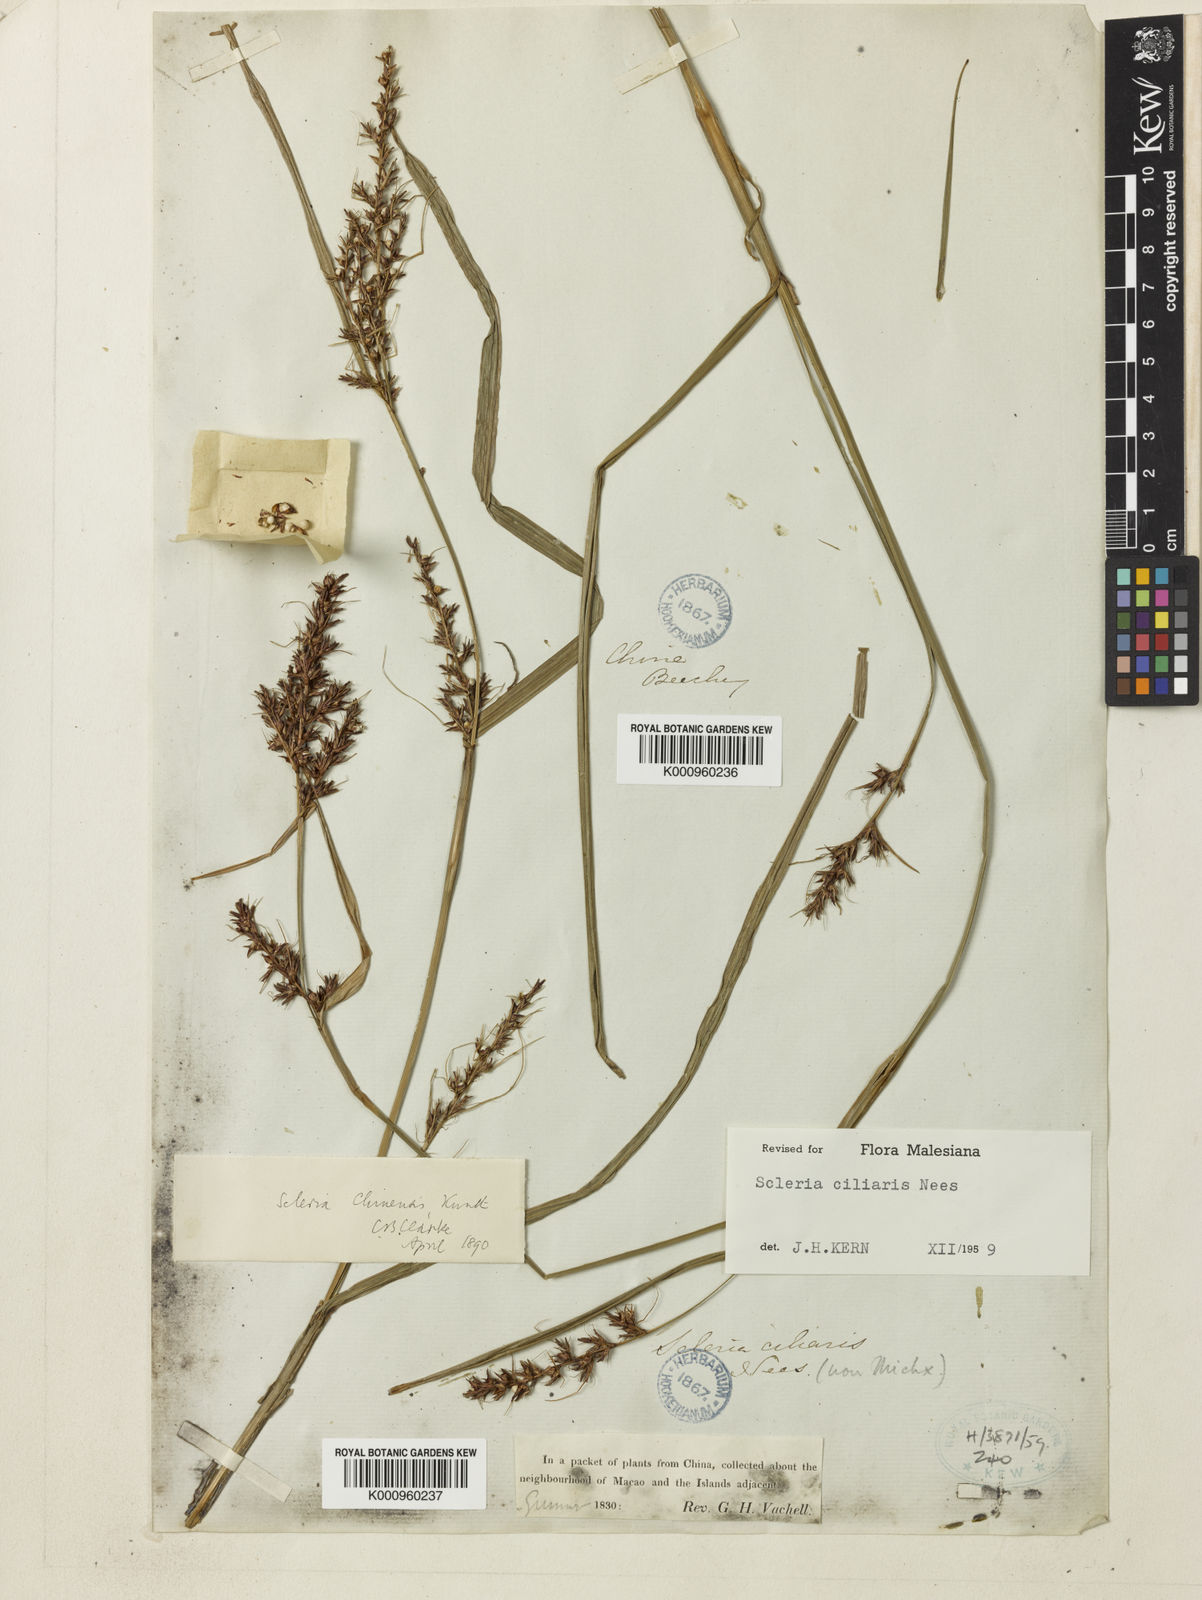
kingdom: Plantae
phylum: Tracheophyta
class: Liliopsida
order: Poales
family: Cyperaceae
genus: Scleria
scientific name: Scleria ciliaris
